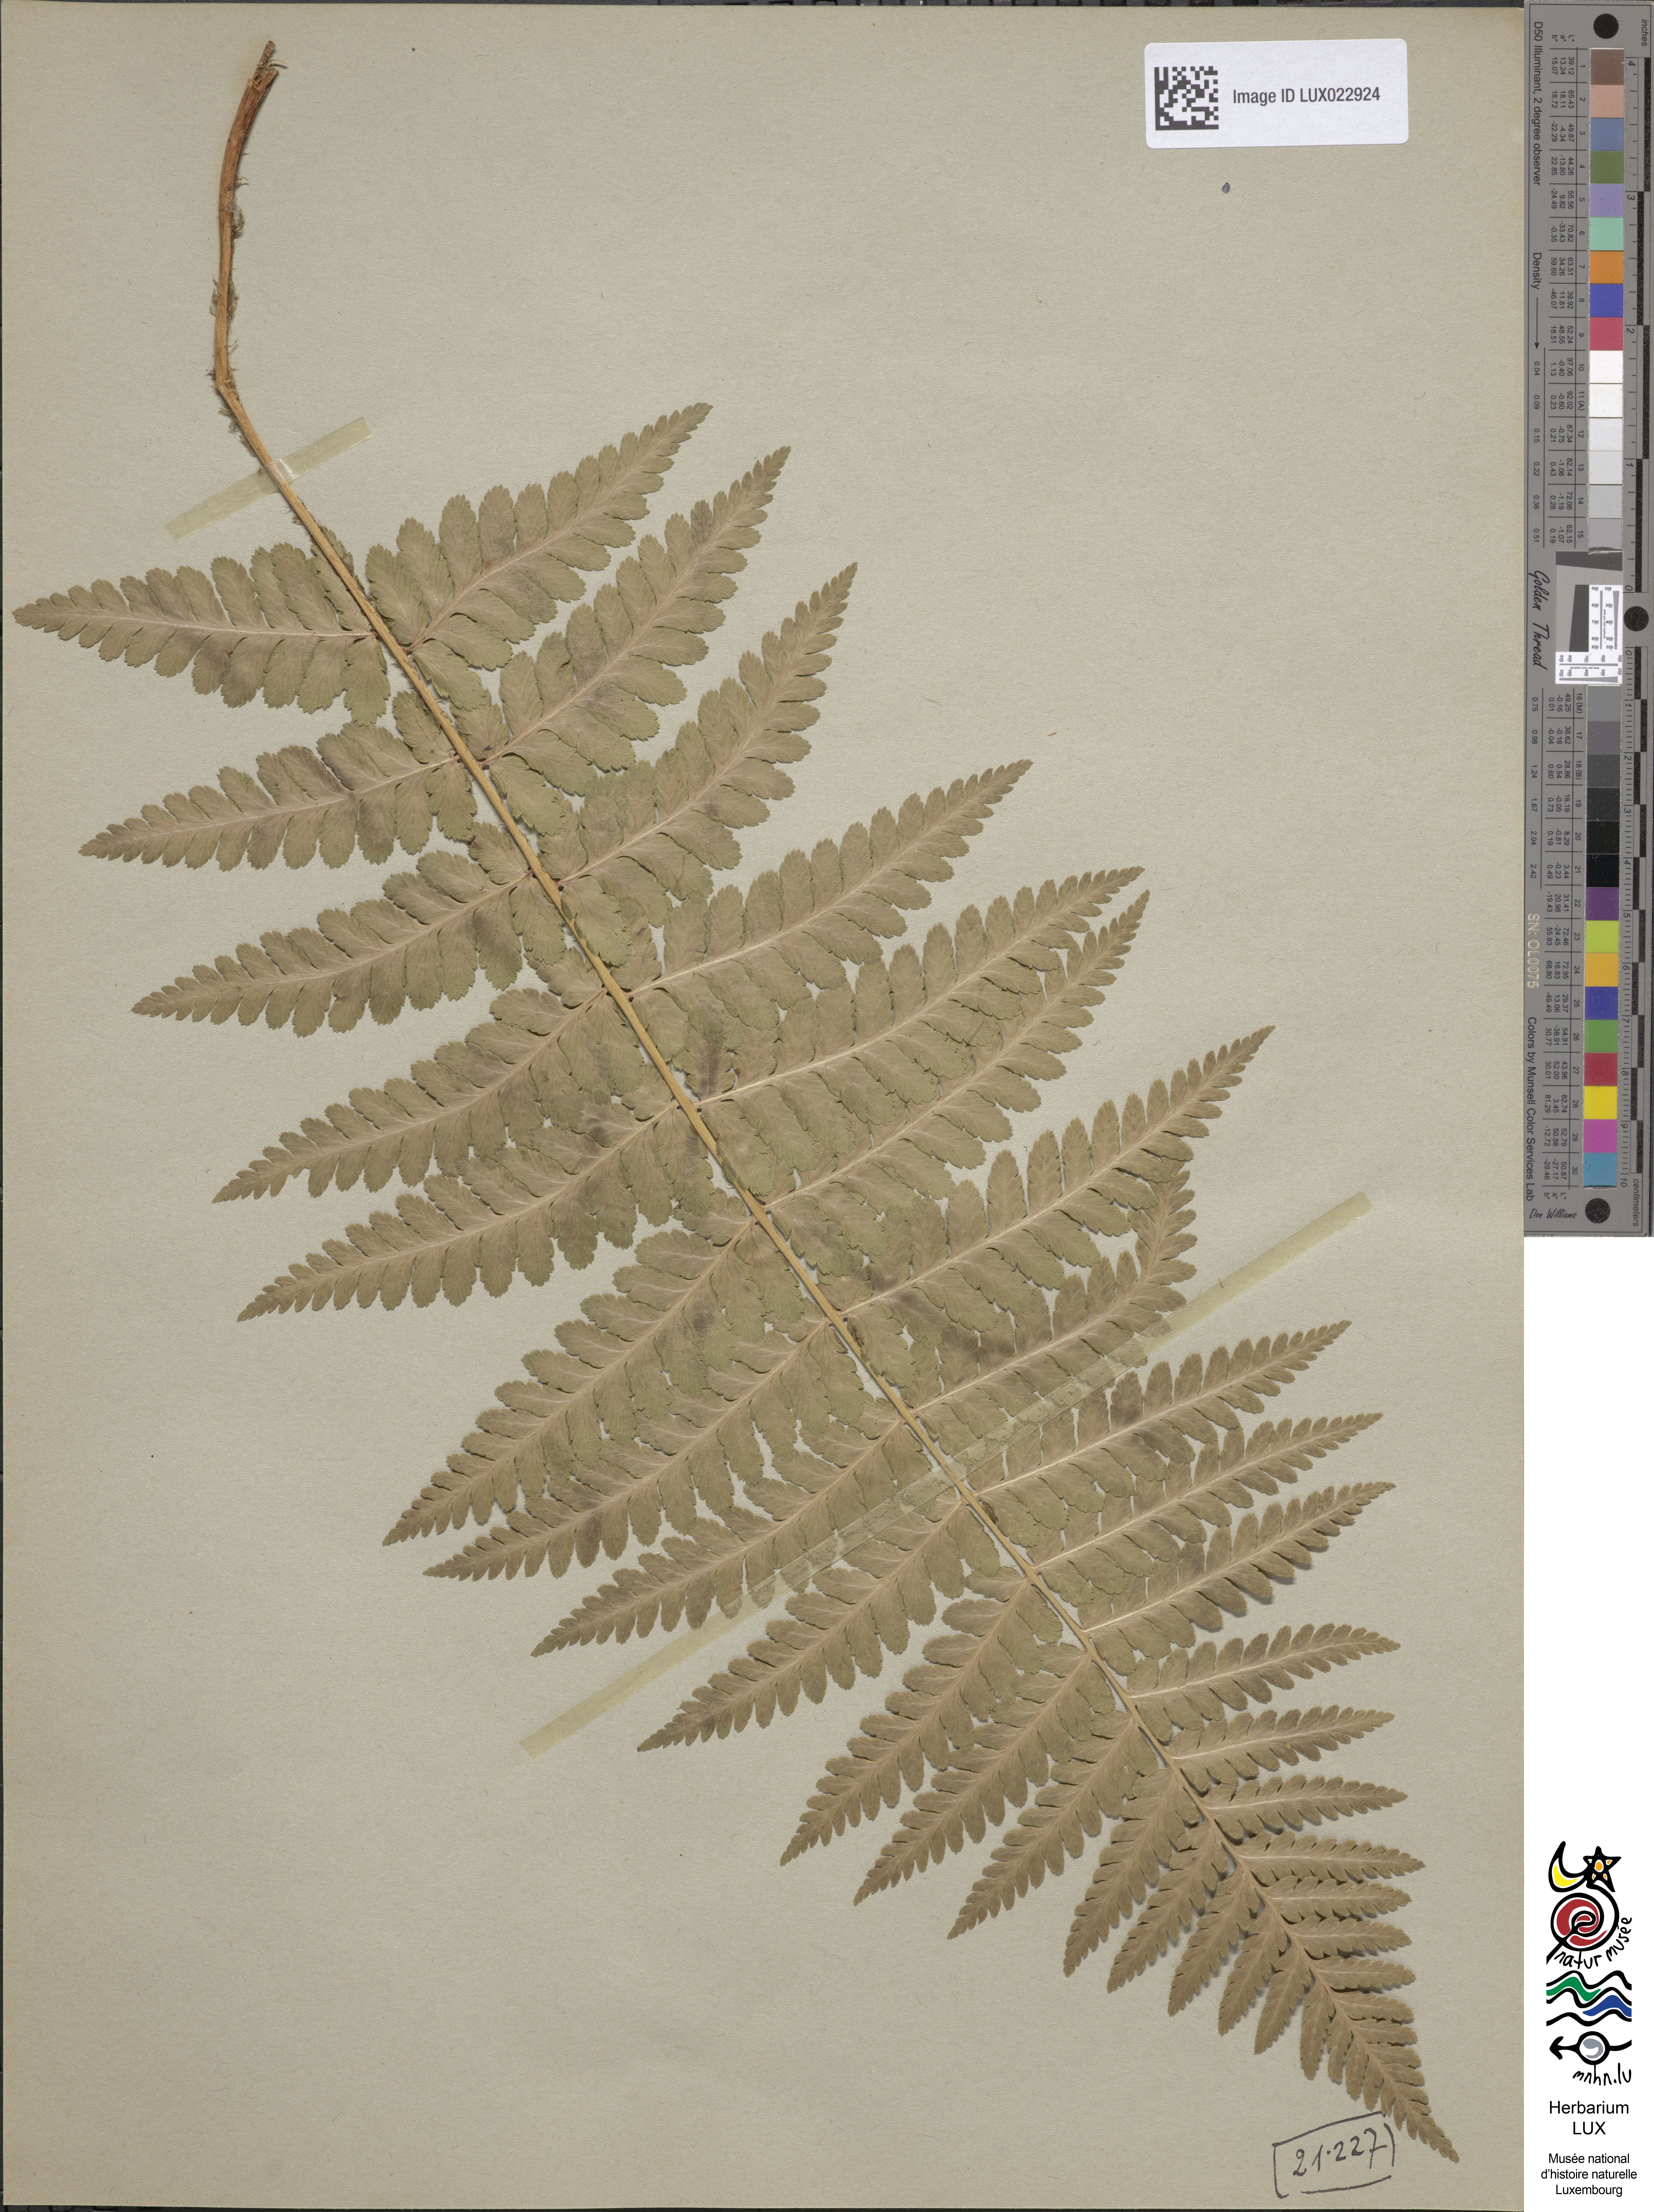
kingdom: Plantae
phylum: Tracheophyta
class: Polypodiopsida
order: Polypodiales
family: Dryopteridaceae
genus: Dryopteris
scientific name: Dryopteris filix-mas
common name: Male fern
